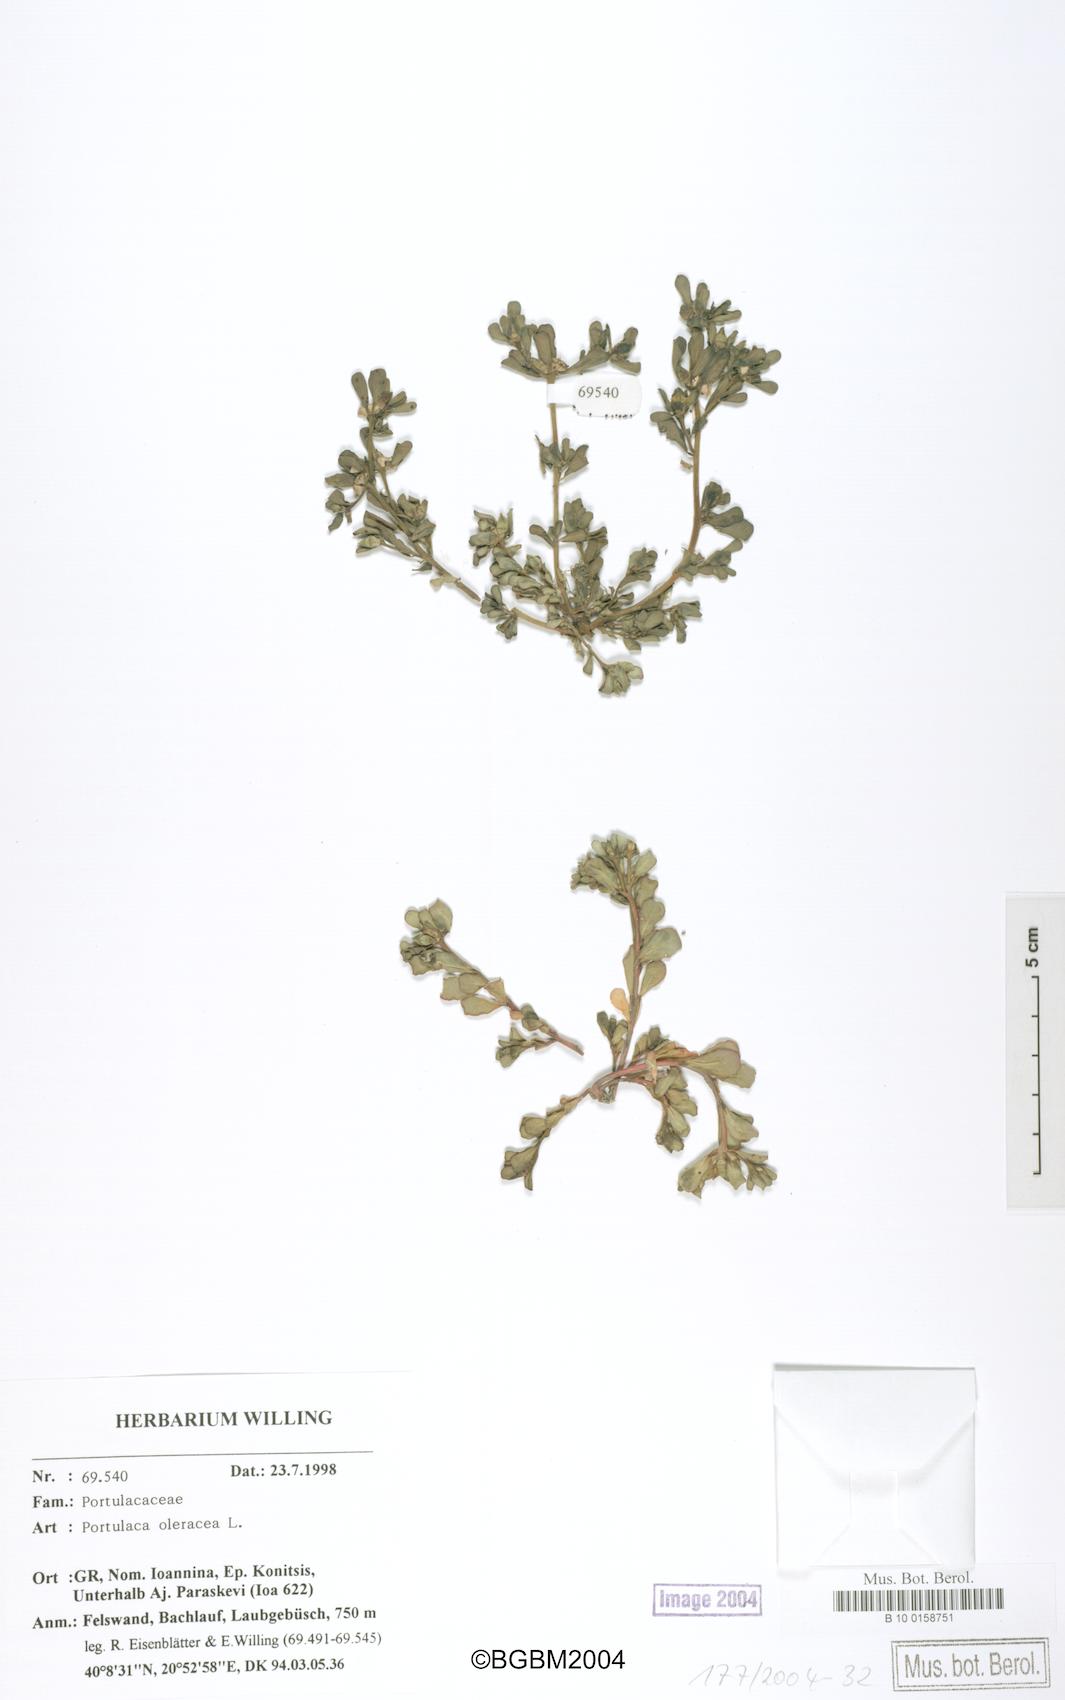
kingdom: Plantae
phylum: Tracheophyta
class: Magnoliopsida
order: Caryophyllales
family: Portulacaceae
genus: Portulaca
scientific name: Portulaca oleracea
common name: Common purslane
